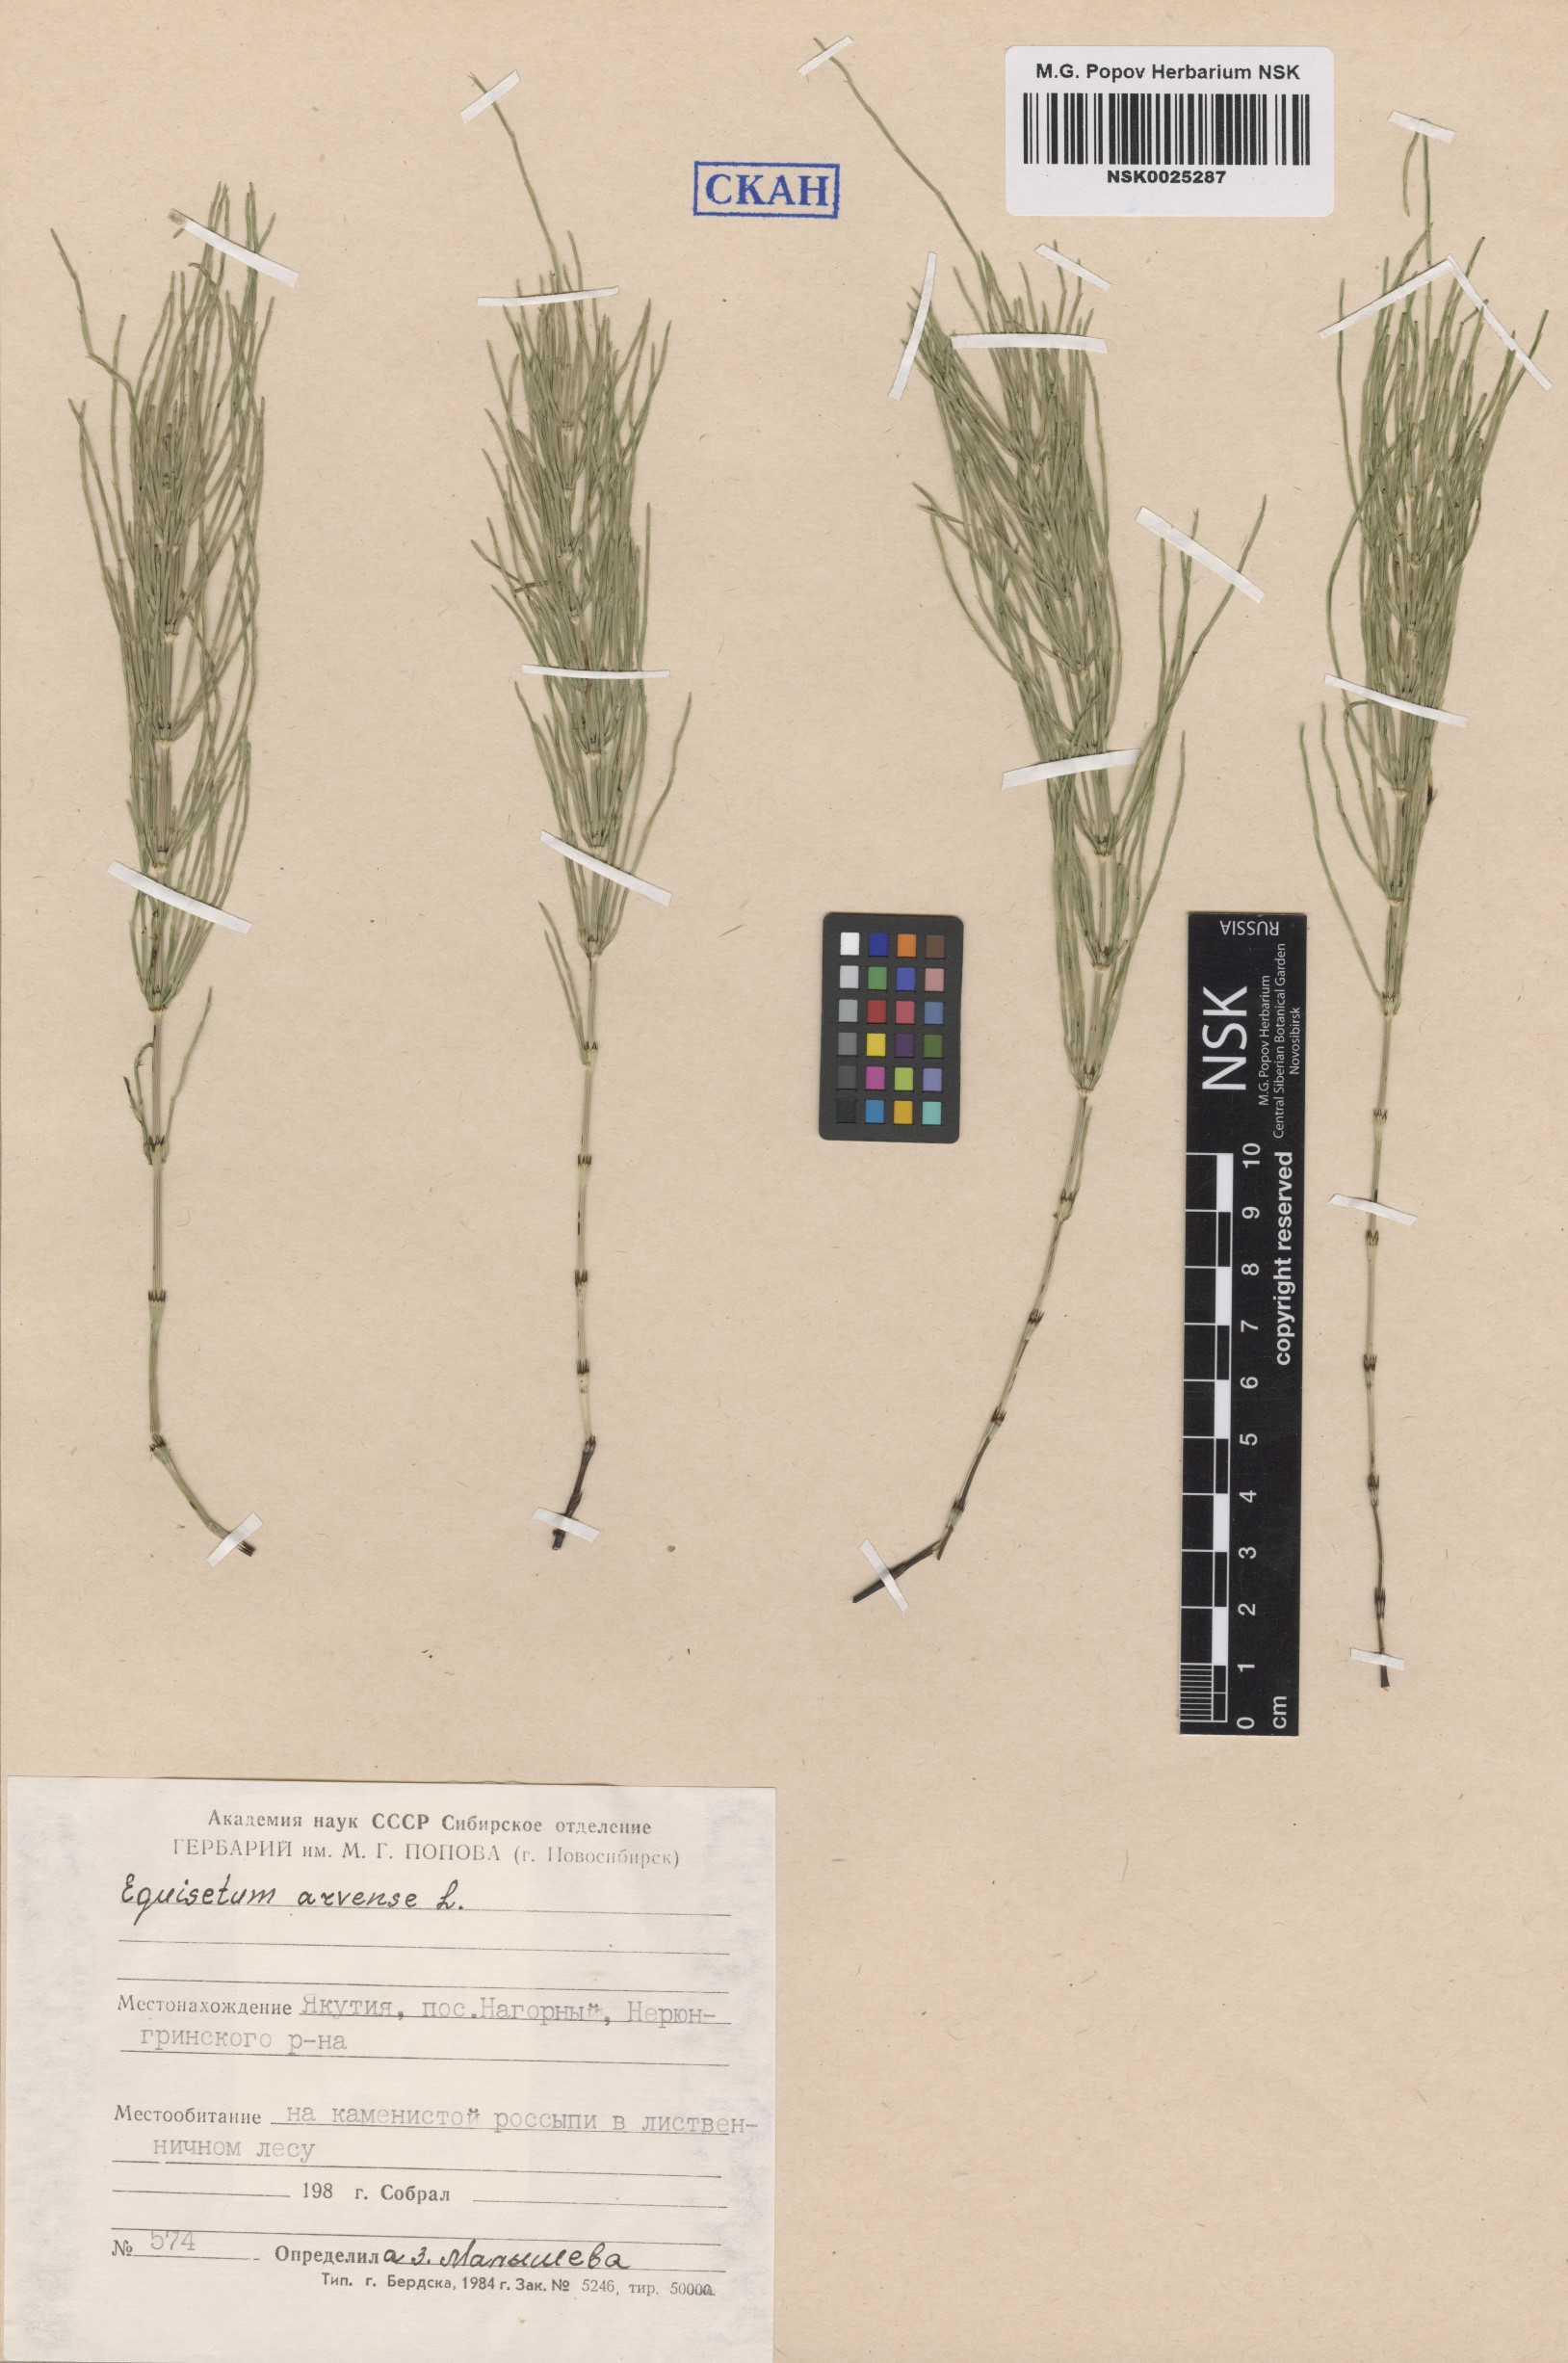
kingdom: Plantae
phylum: Tracheophyta
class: Polypodiopsida
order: Equisetales
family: Equisetaceae
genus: Equisetum
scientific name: Equisetum arvense
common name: Field horsetail
